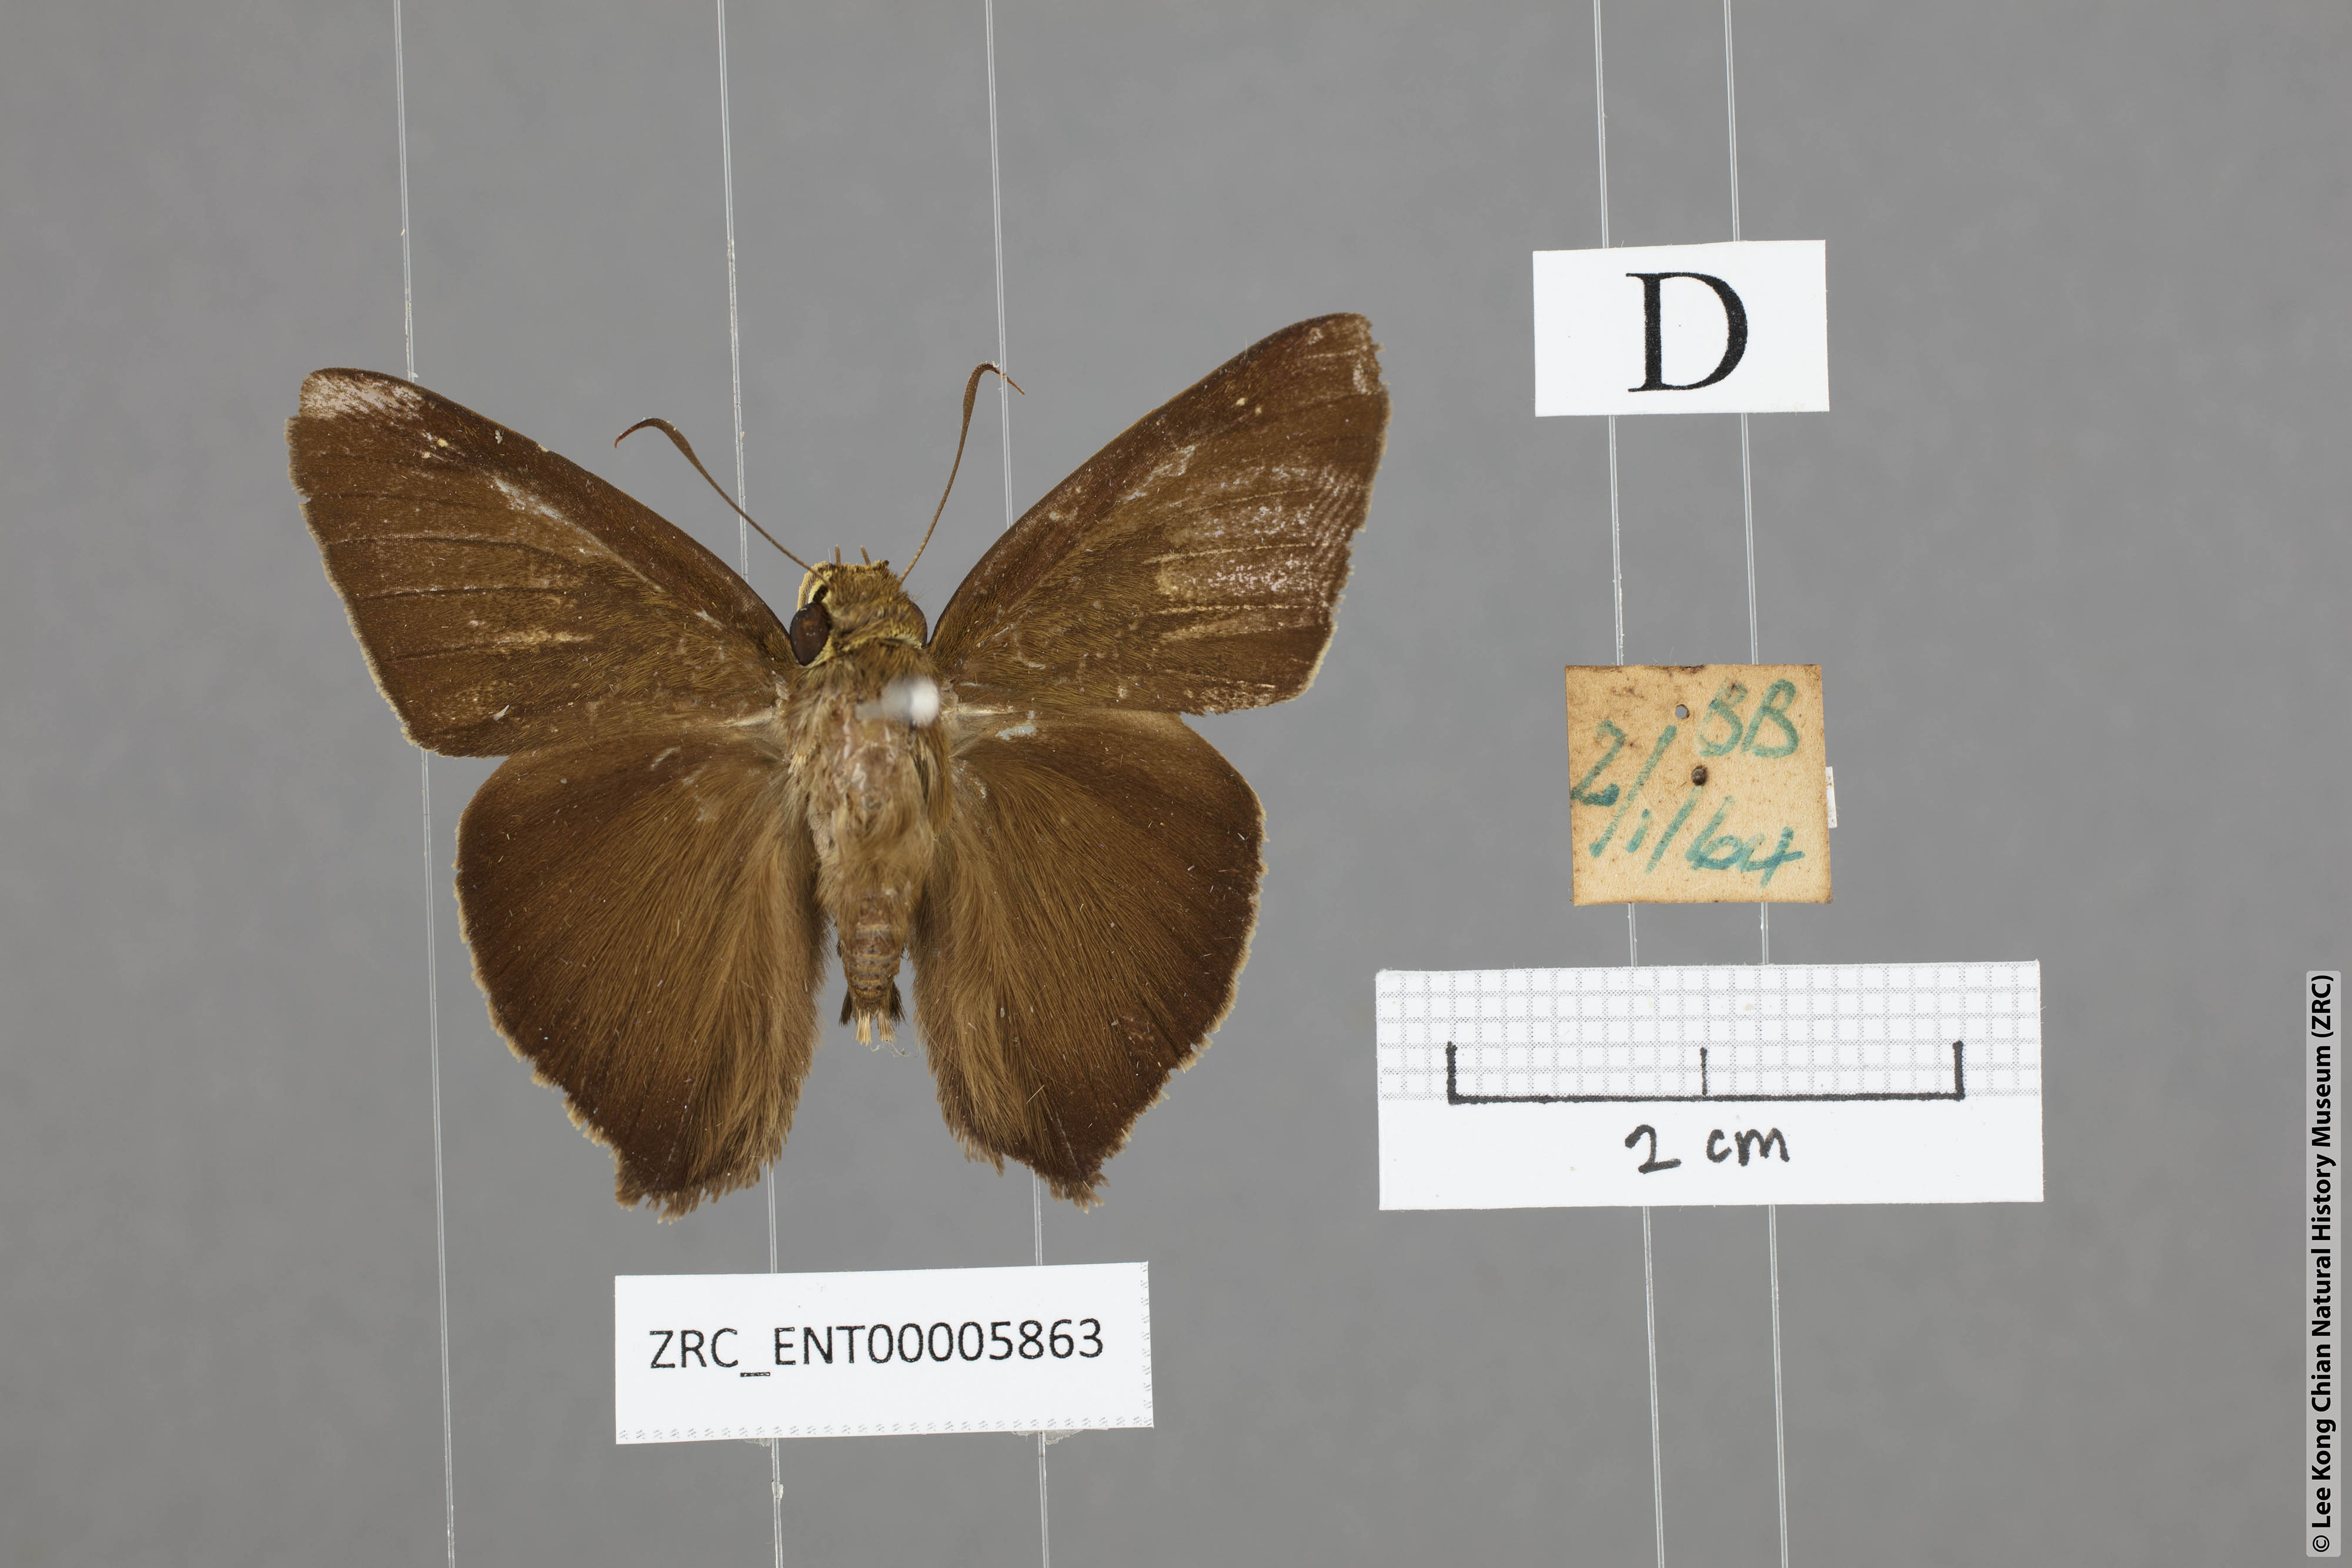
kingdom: Animalia
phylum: Arthropoda
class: Insecta
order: Lepidoptera
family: Hesperiidae
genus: Hasora
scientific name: Hasora badra
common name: Common awl
